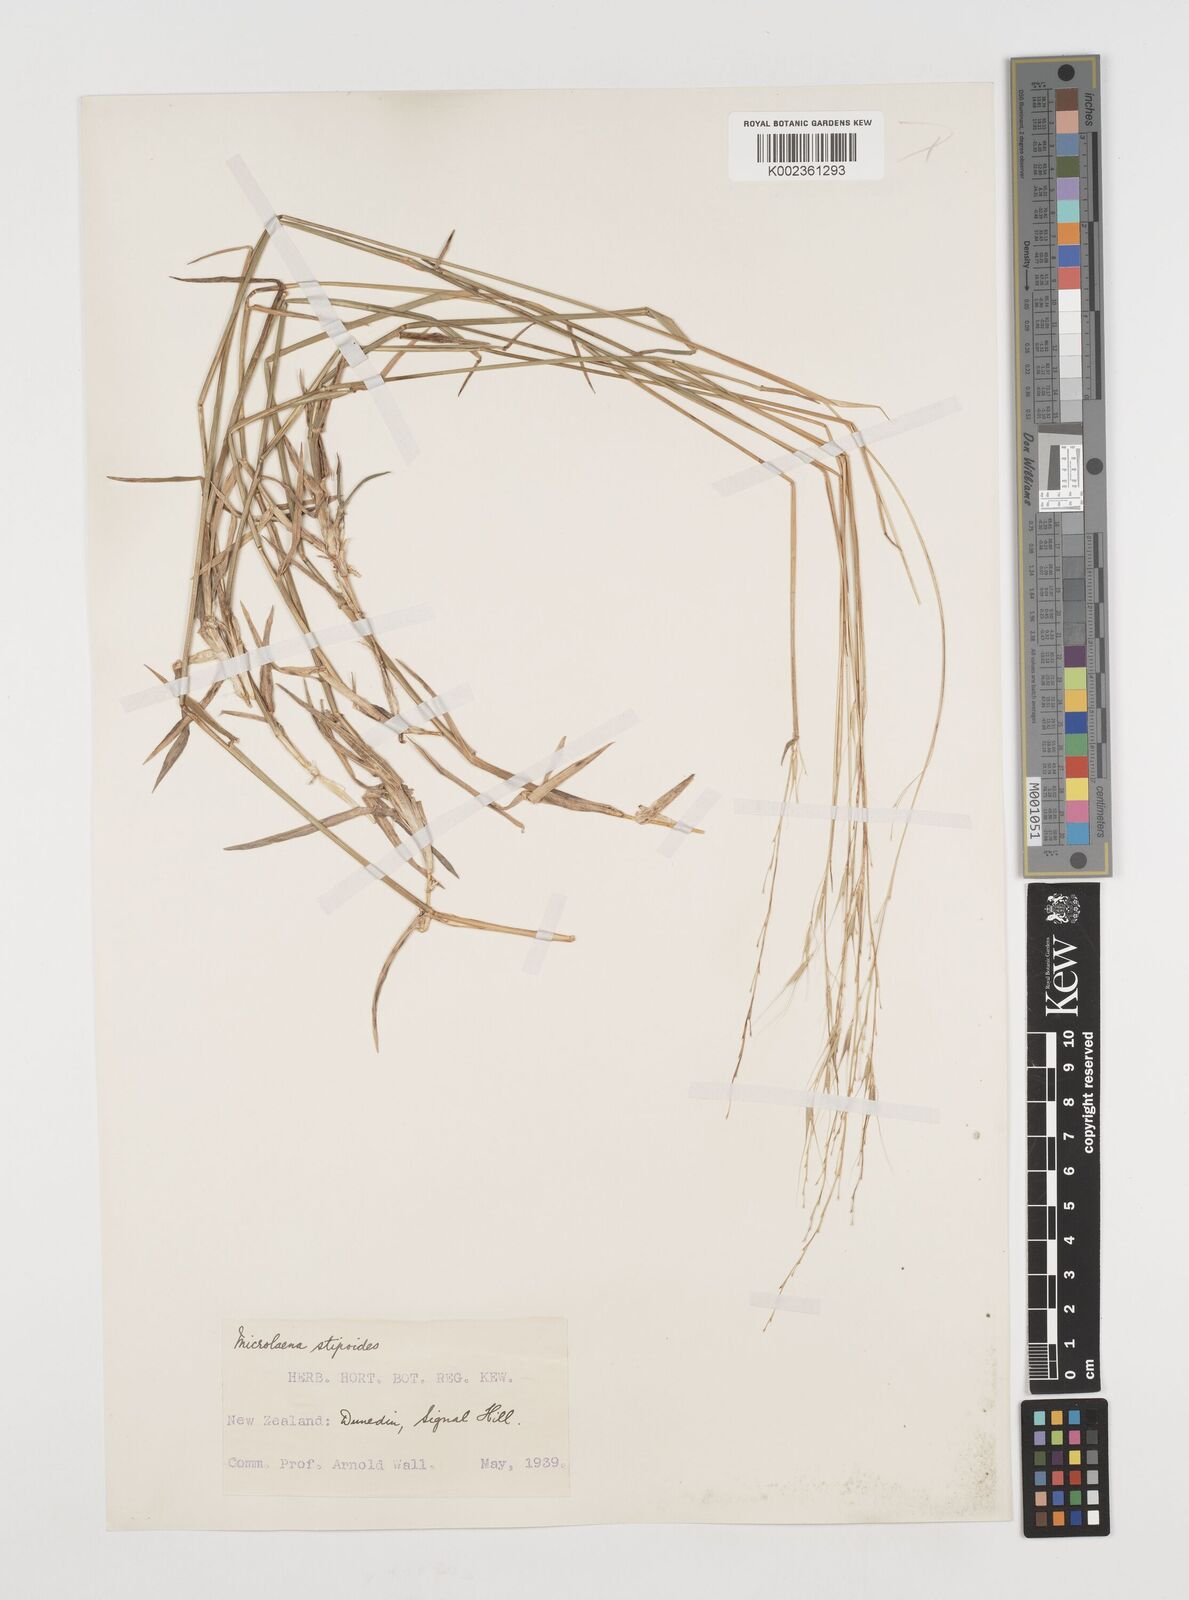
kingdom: Plantae
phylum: Tracheophyta
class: Liliopsida
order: Poales
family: Poaceae
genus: Microlaena
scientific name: Microlaena stipoides
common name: Meadow ricegrass
